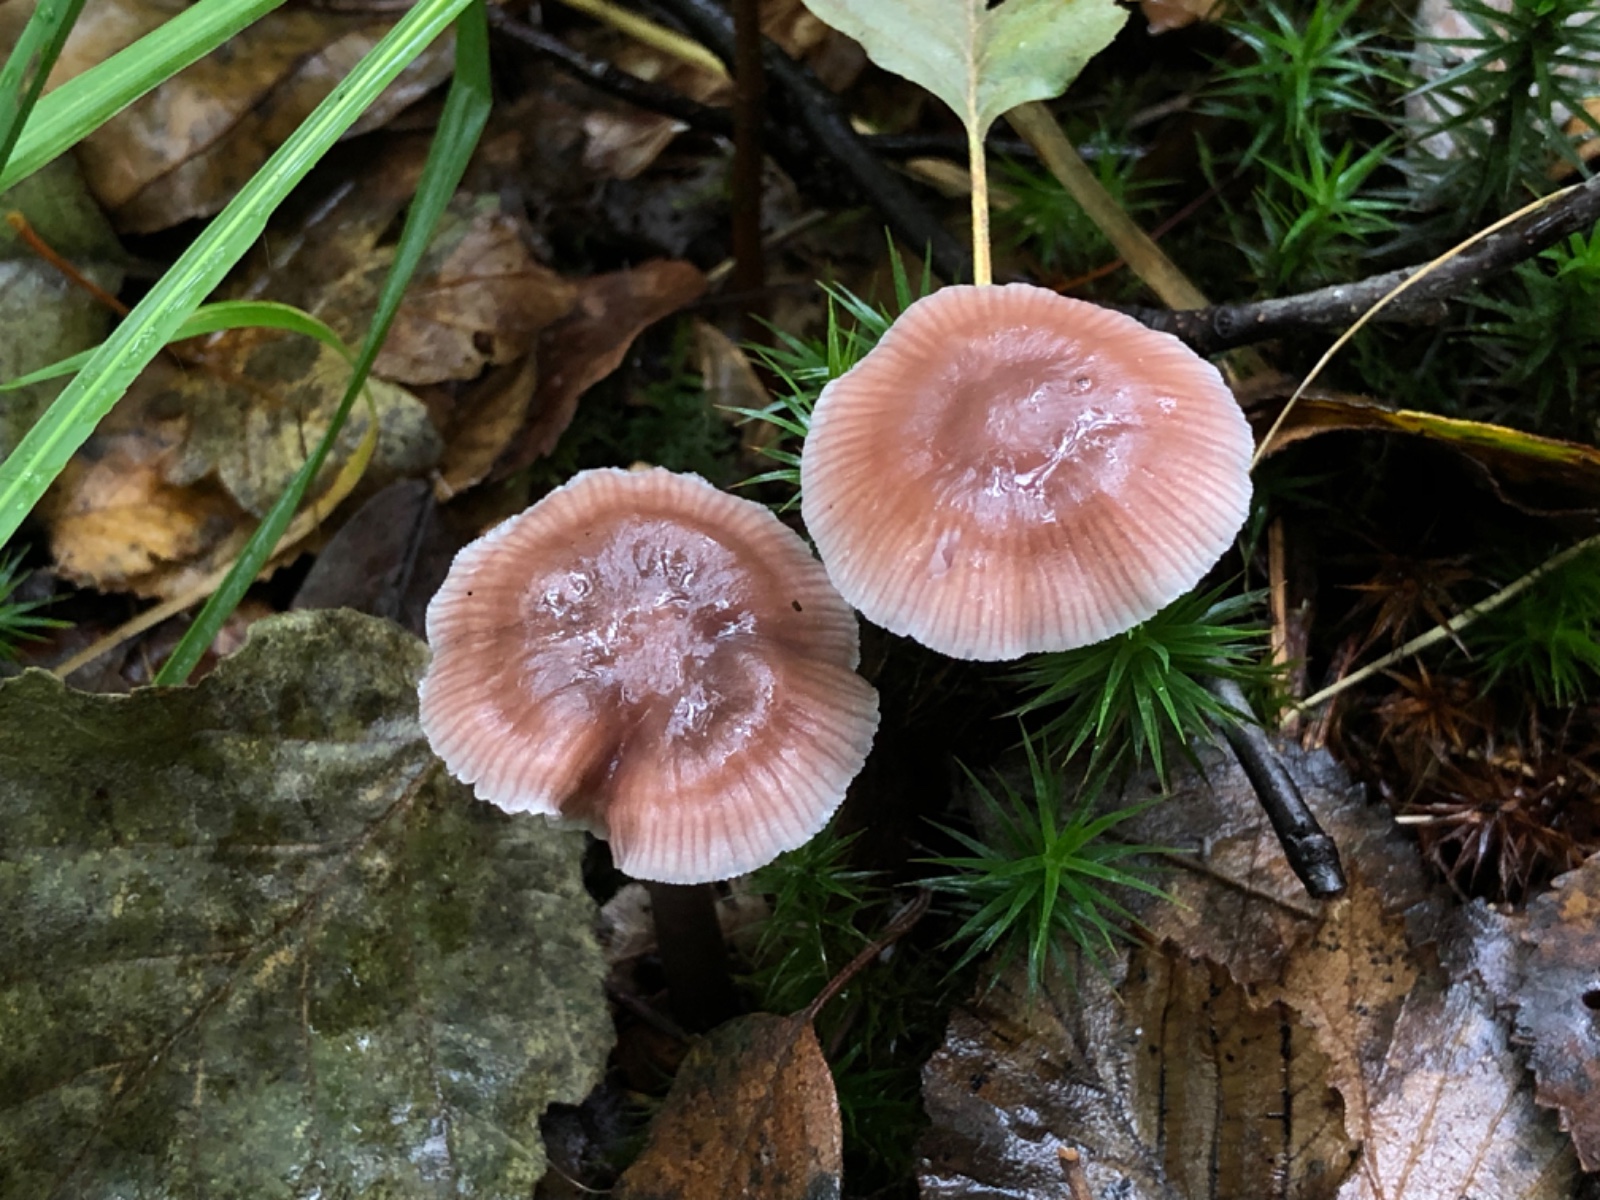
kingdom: Fungi
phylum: Basidiomycota
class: Agaricomycetes
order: Agaricales
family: Mycenaceae
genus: Prunulus
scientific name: Prunulus diosmus
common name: tobaks-huesvamp
